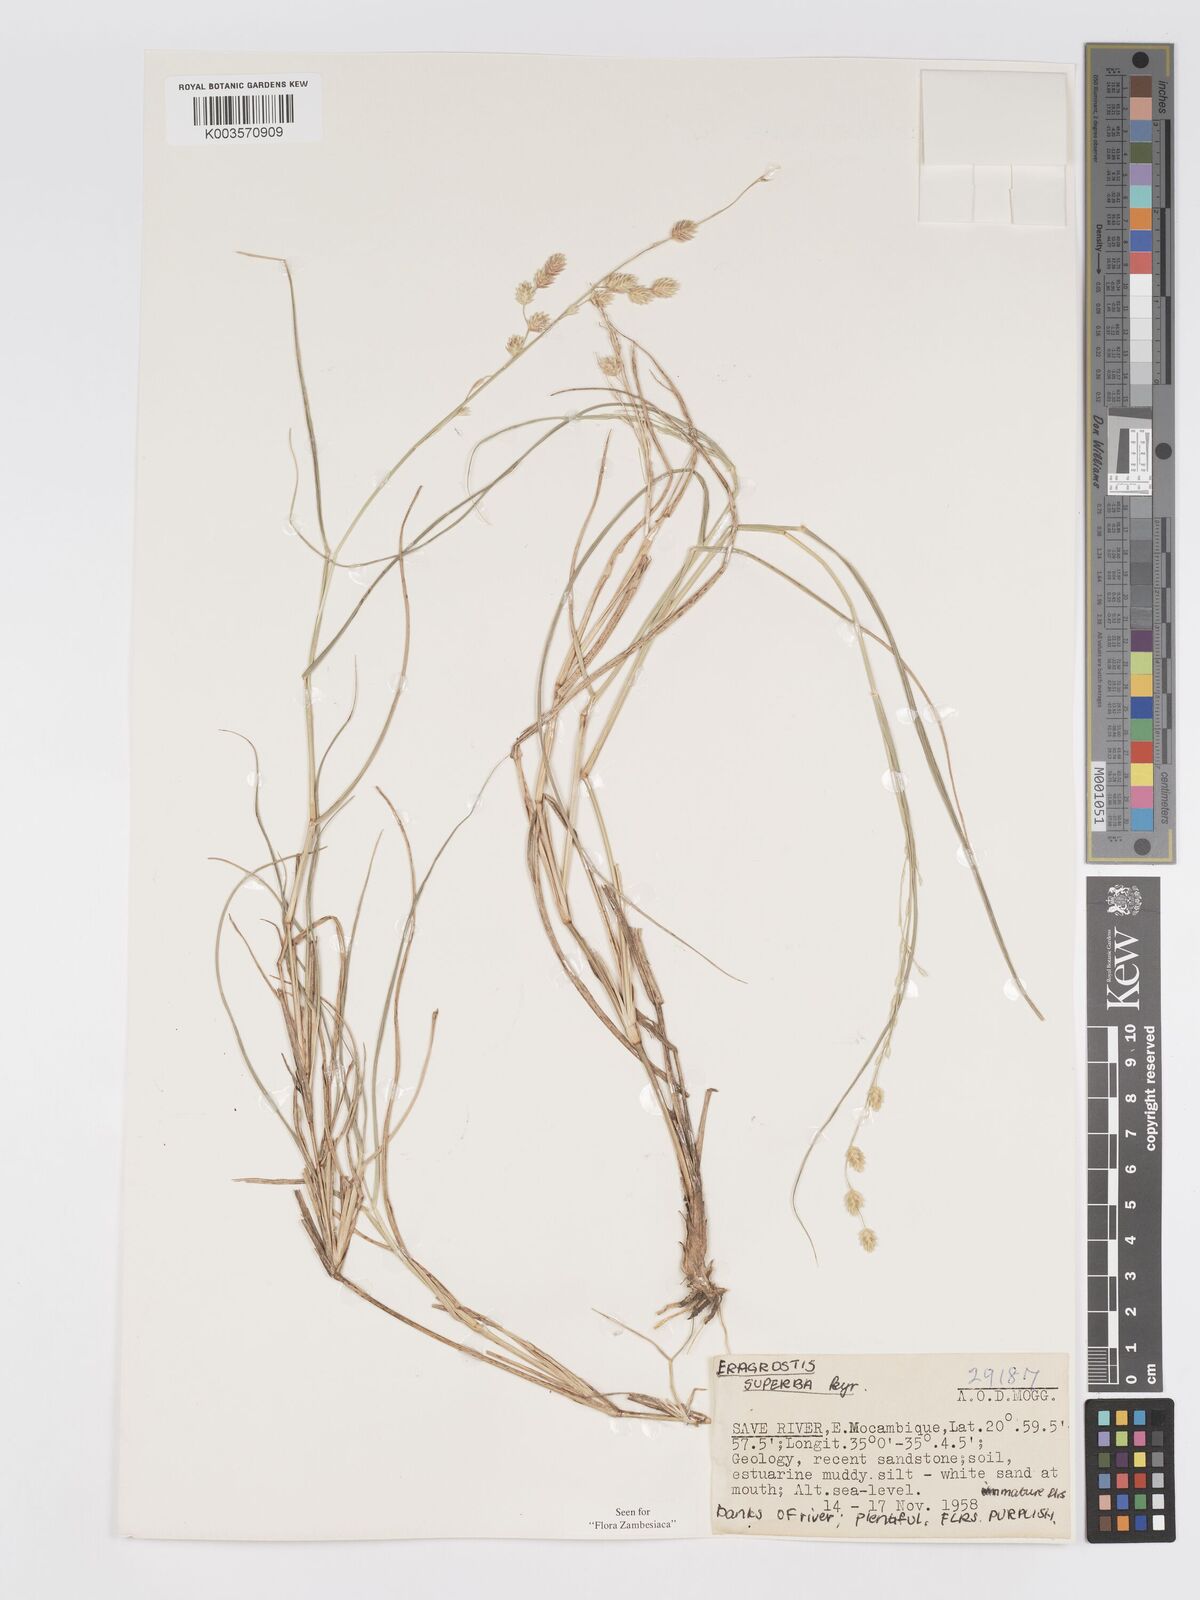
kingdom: Plantae
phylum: Tracheophyta
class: Liliopsida
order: Poales
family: Poaceae
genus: Eragrostis
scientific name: Eragrostis superba
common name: Wilman lovegrass
